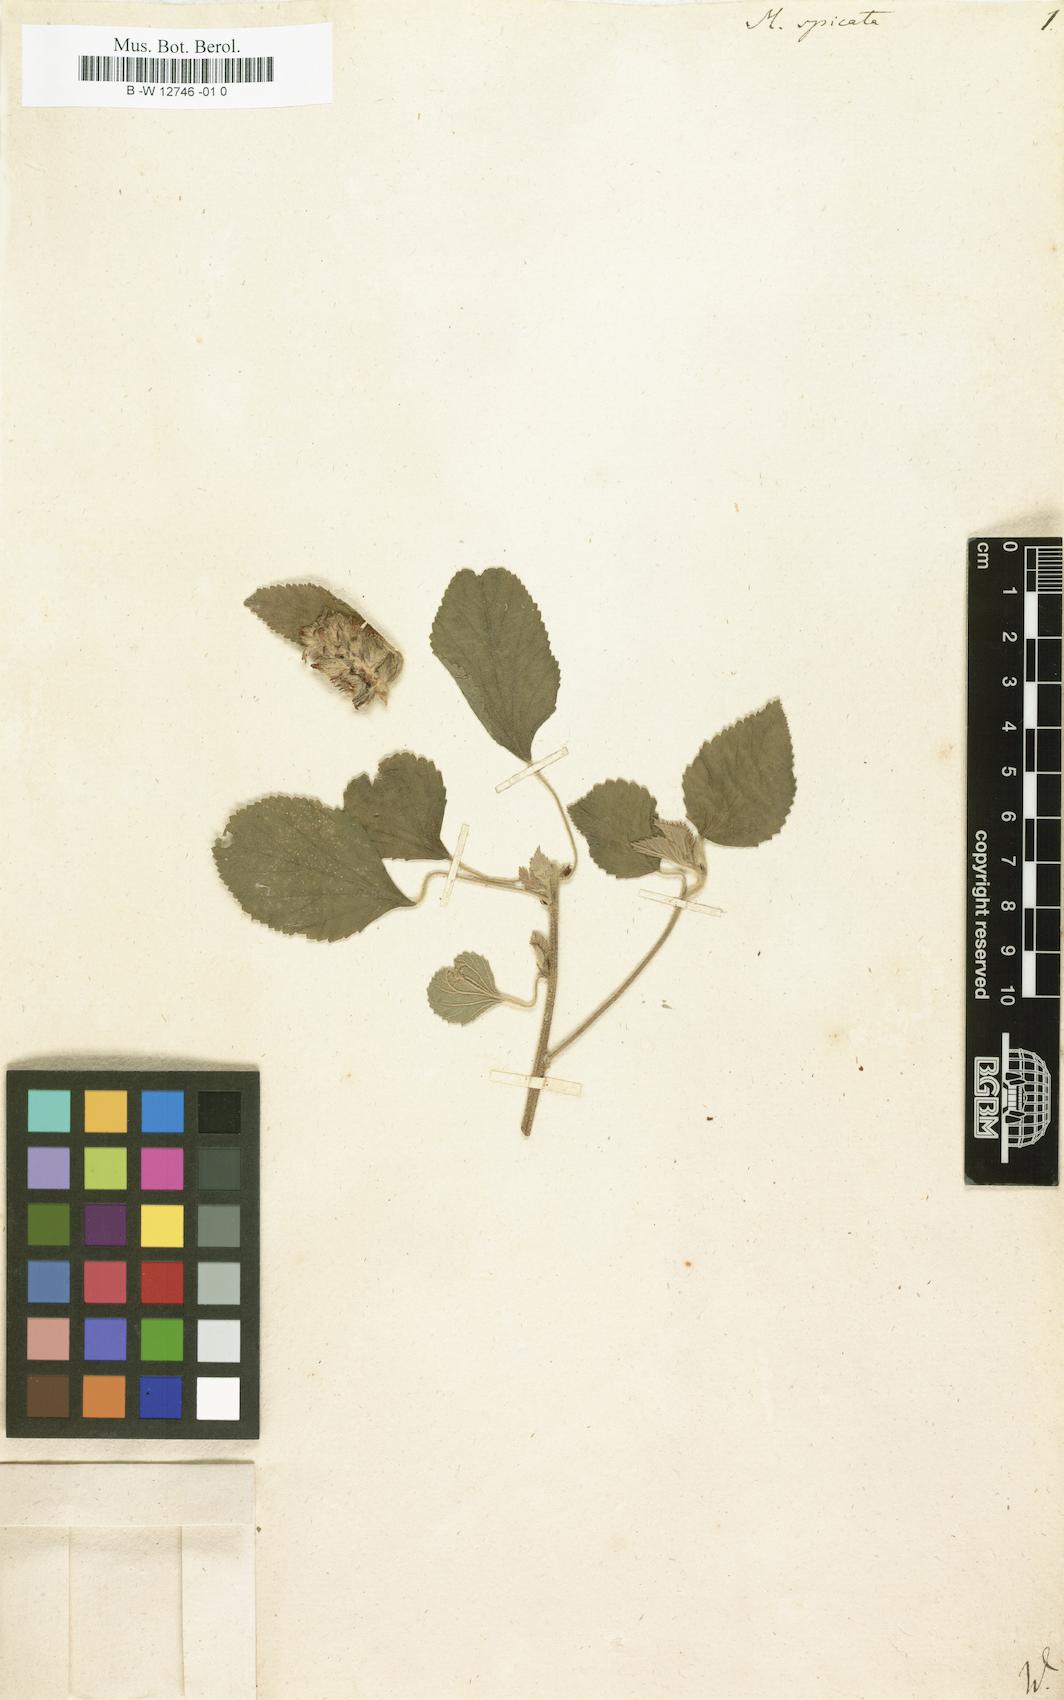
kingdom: Plantae
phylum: Tracheophyta
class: Magnoliopsida
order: Malvales
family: Malvaceae
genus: Melochia
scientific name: Melochia spicata
